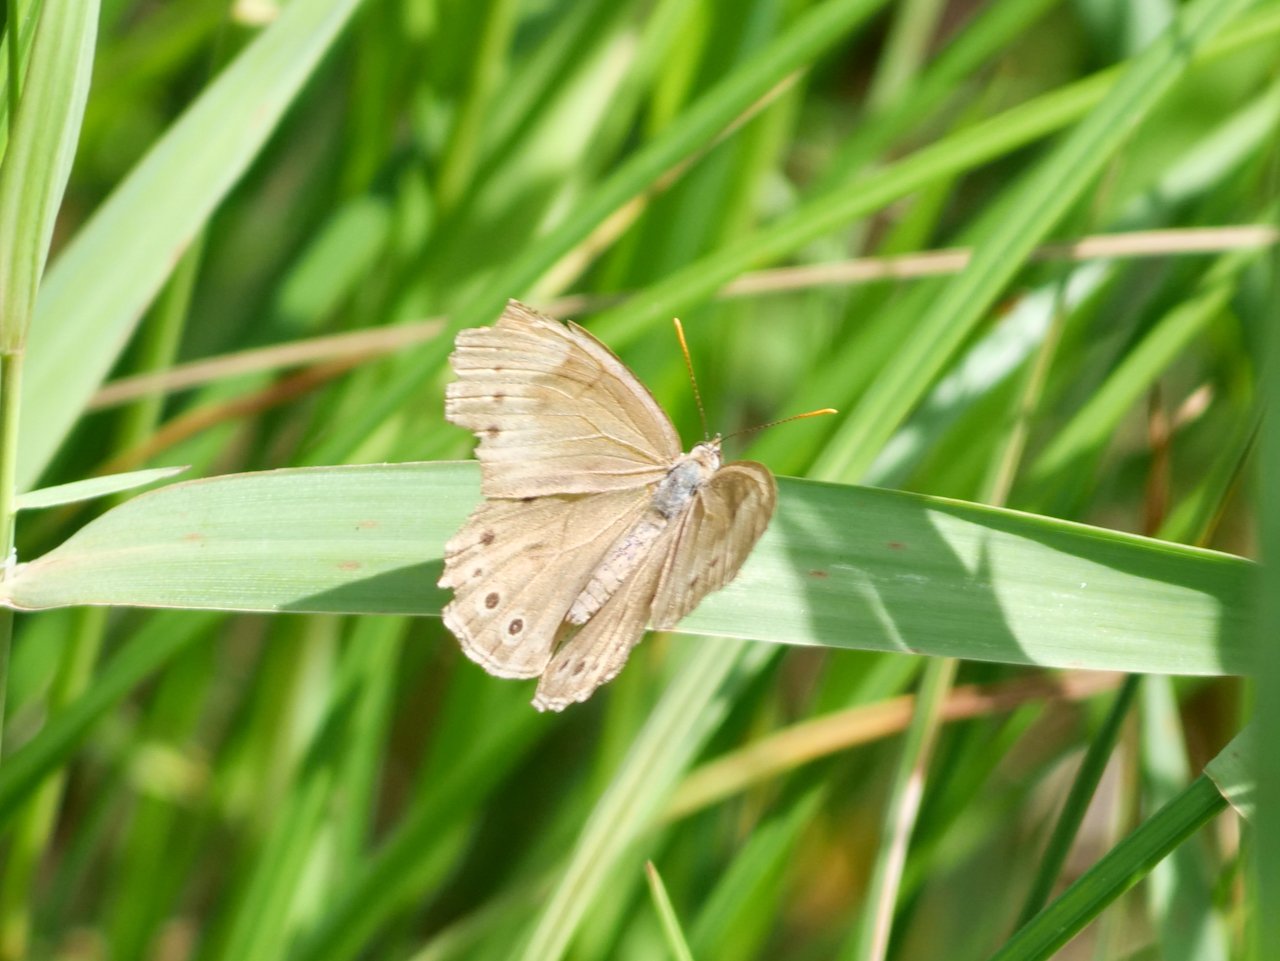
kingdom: Animalia
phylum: Arthropoda
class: Insecta
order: Lepidoptera
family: Nymphalidae
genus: Lethe
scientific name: Lethe
